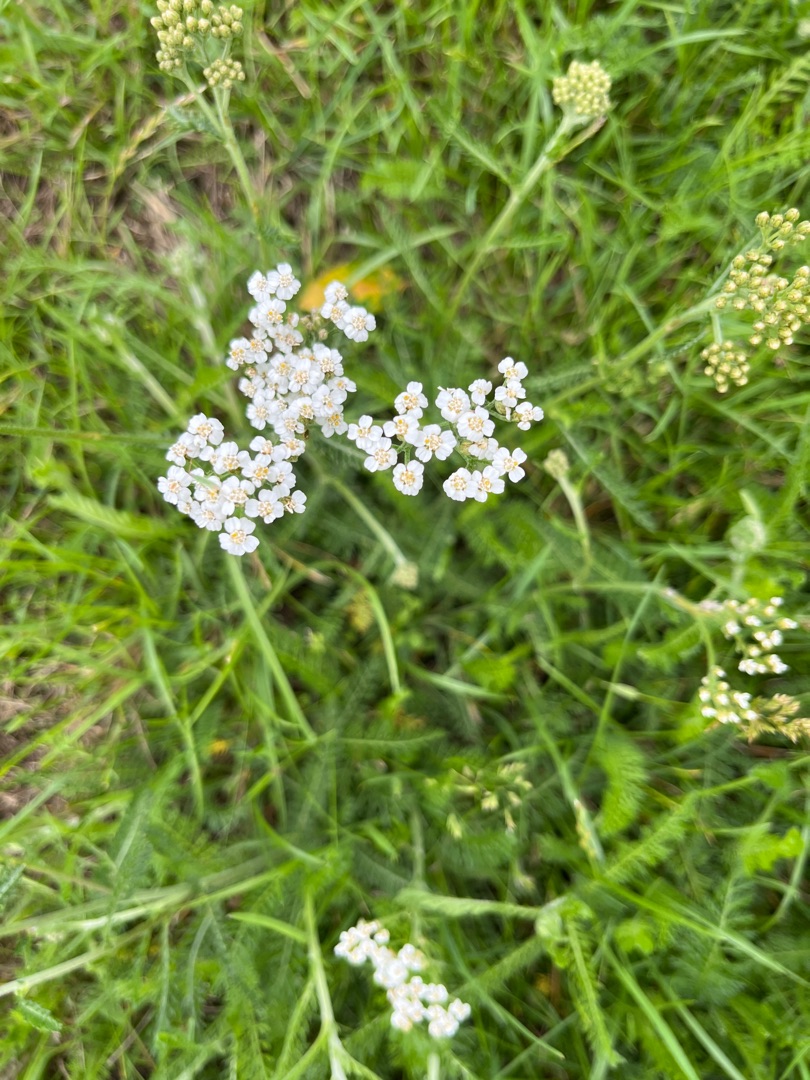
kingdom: Plantae
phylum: Tracheophyta
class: Magnoliopsida
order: Asterales
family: Asteraceae
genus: Achillea
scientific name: Achillea millefolium
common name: Almindelig røllike
